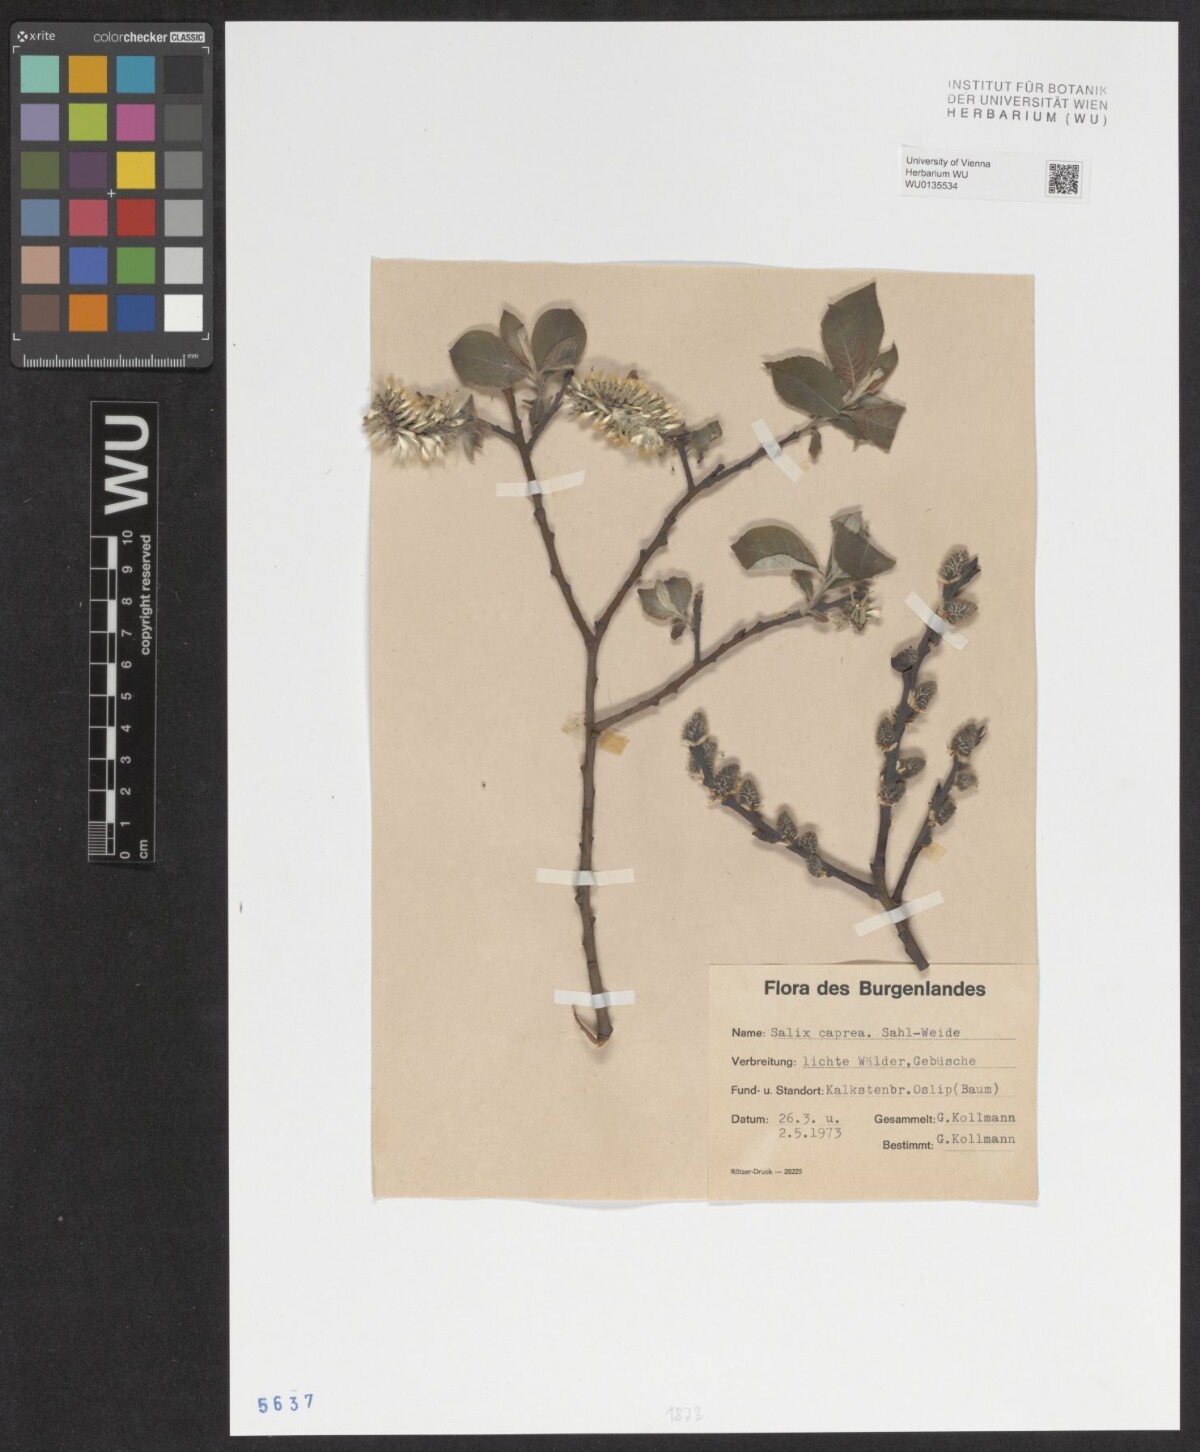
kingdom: Plantae
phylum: Tracheophyta
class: Magnoliopsida
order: Malpighiales
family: Salicaceae
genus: Salix
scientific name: Salix caprea
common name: Goat willow
